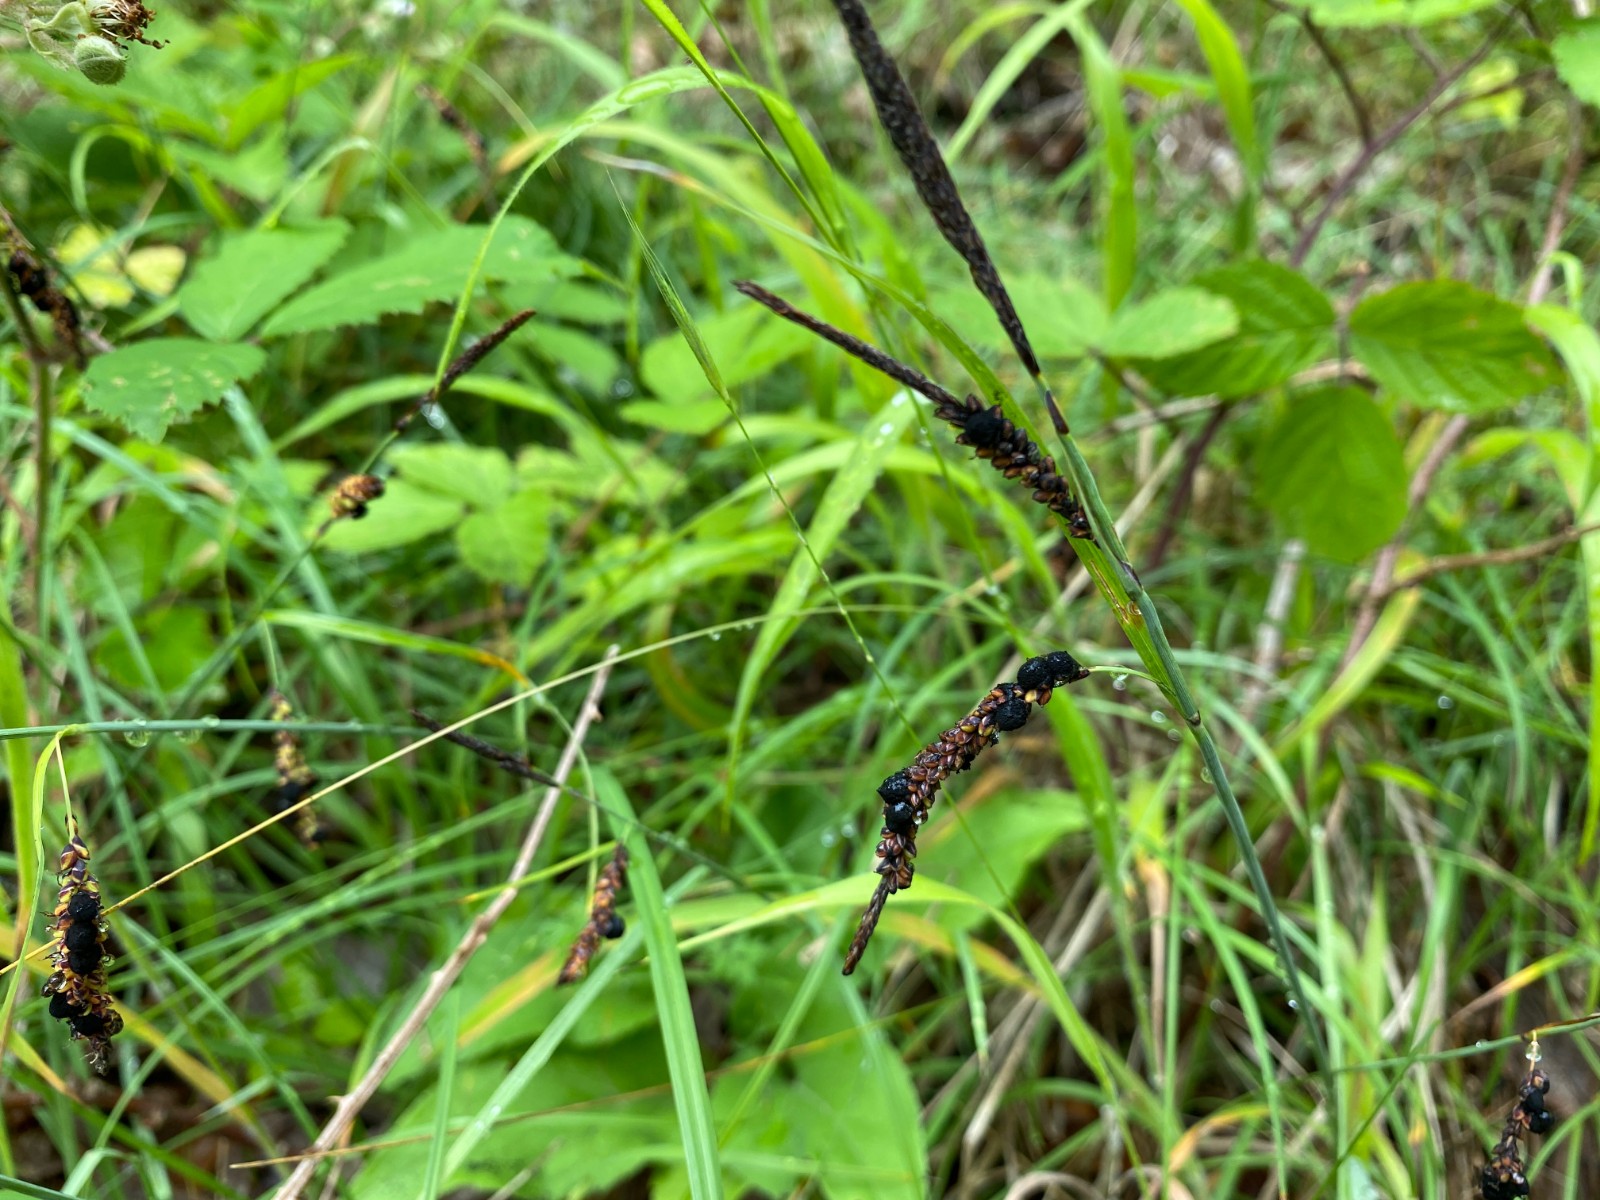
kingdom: Fungi
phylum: Basidiomycota
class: Ustilaginomycetes
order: Ustilaginales
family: Anthracoideaceae
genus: Anthracoidea
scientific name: Anthracoidea pratensis
